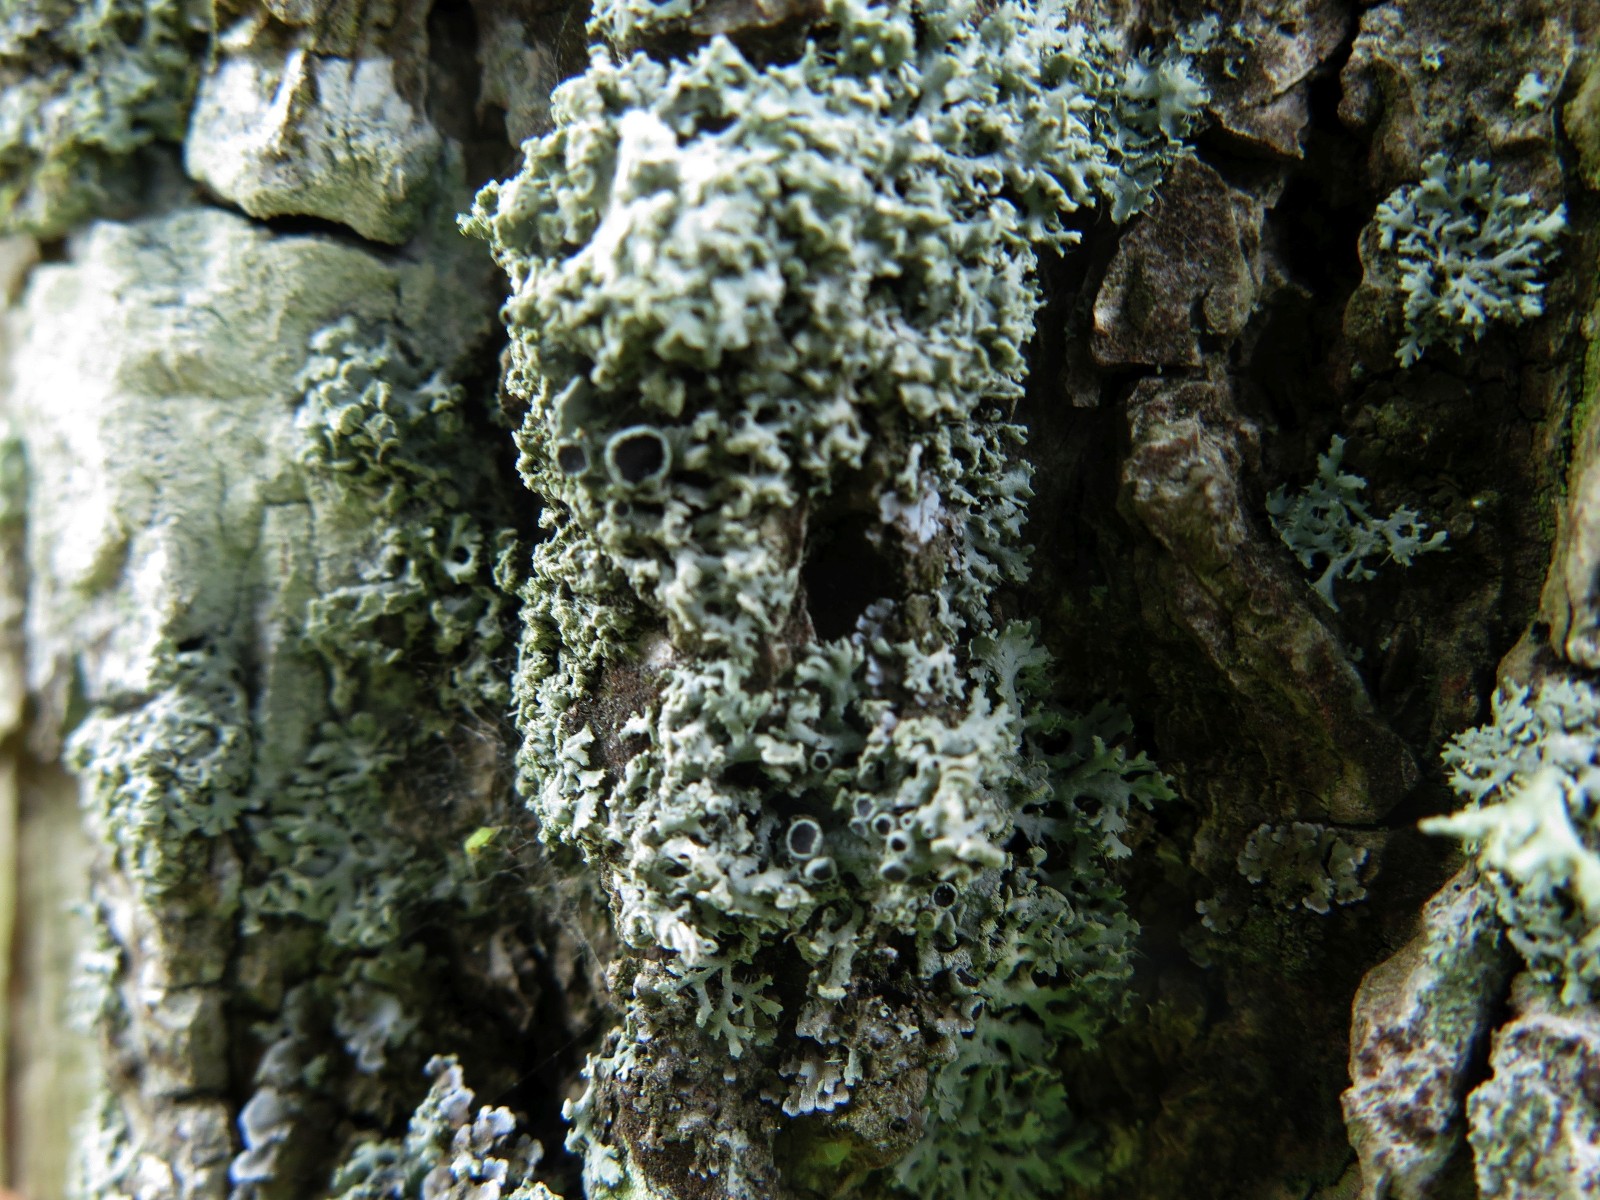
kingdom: Fungi
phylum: Ascomycota
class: Lecanoromycetes
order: Caliciales
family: Physciaceae
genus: Physcia
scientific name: Physcia tenella
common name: spæd rosetlav
